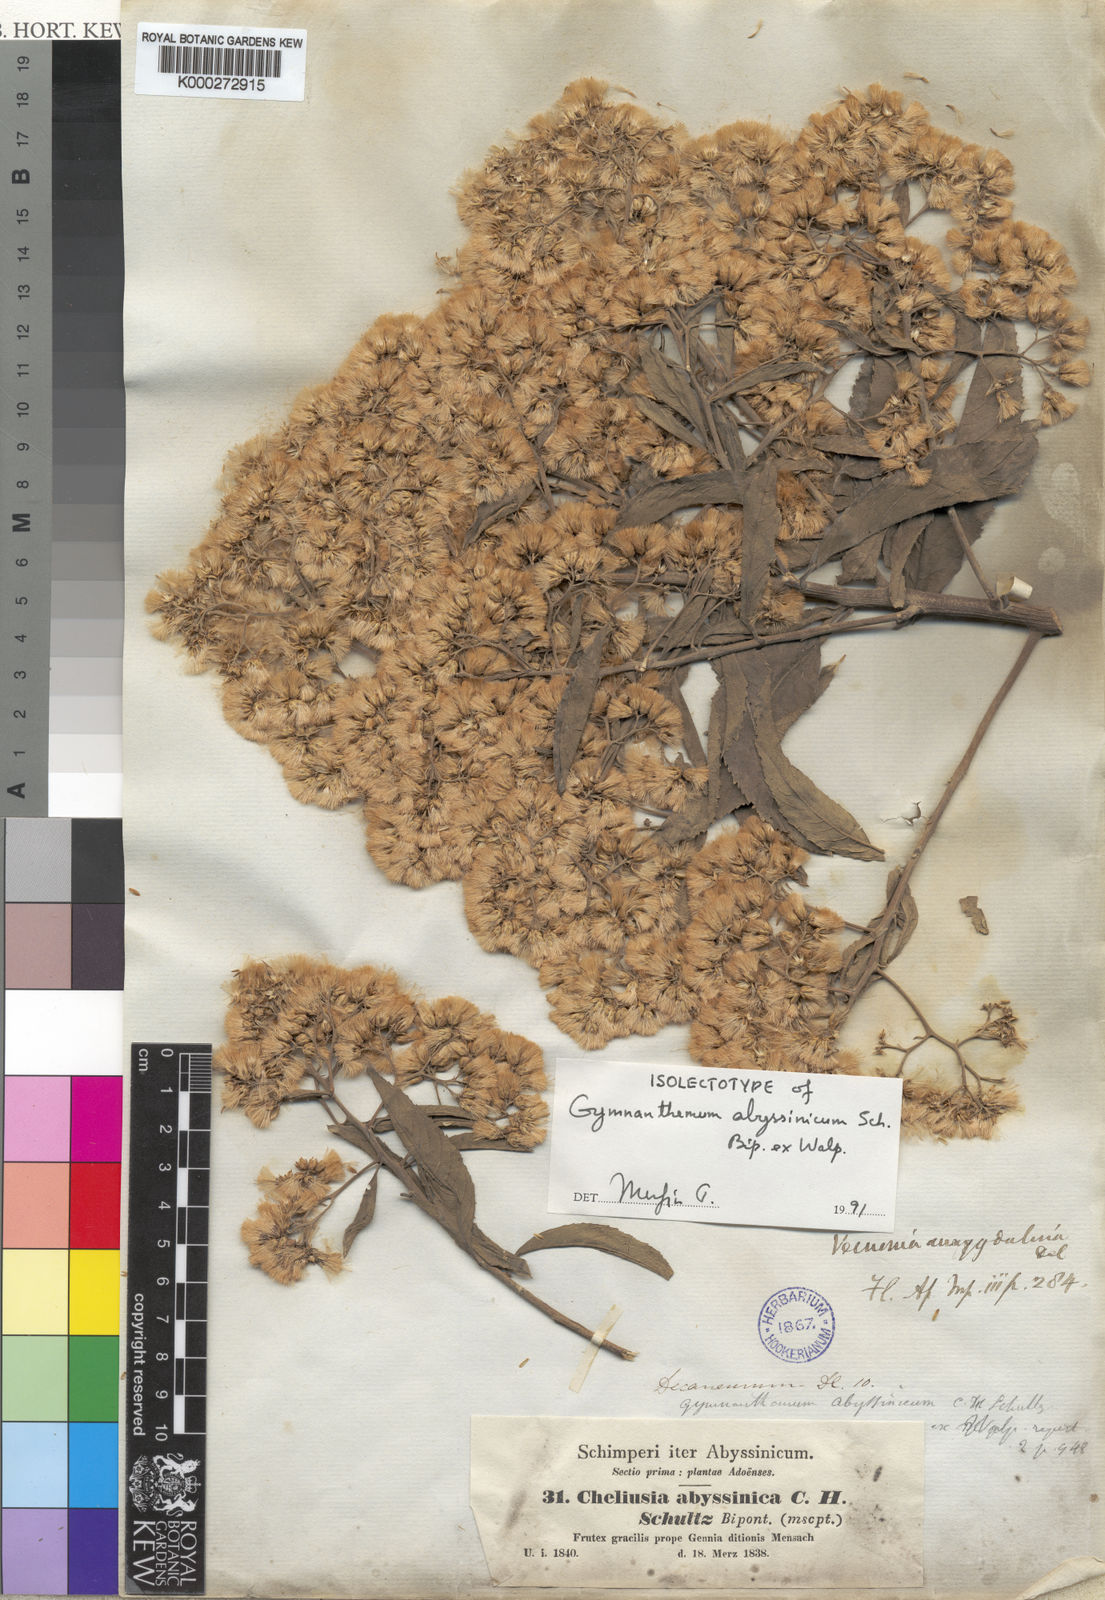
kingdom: Plantae
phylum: Tracheophyta
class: Magnoliopsida
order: Asterales
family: Asteraceae
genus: Gymnanthemum
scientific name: Gymnanthemum amygdalinum
